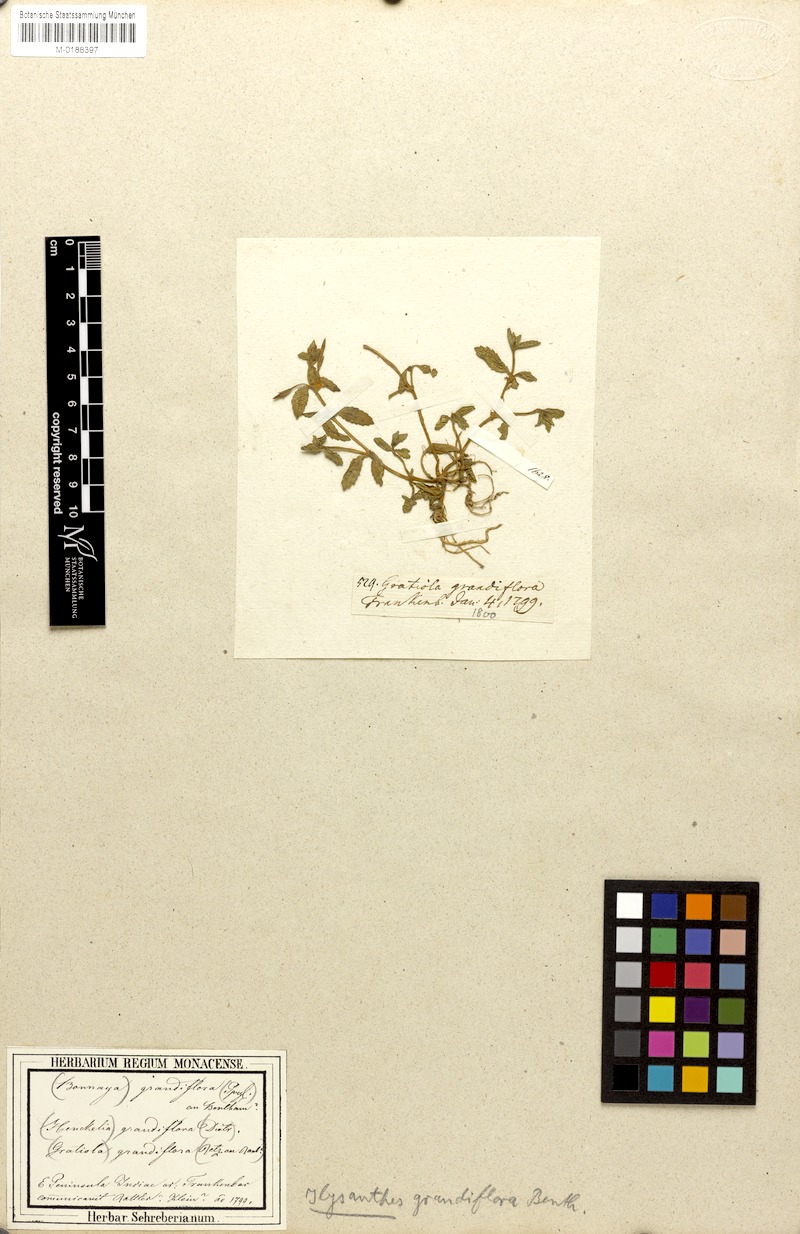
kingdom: Plantae
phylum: Tracheophyta
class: Magnoliopsida
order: Lamiales
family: Linderniaceae
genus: Lindernia
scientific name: Lindernia grandiflora
